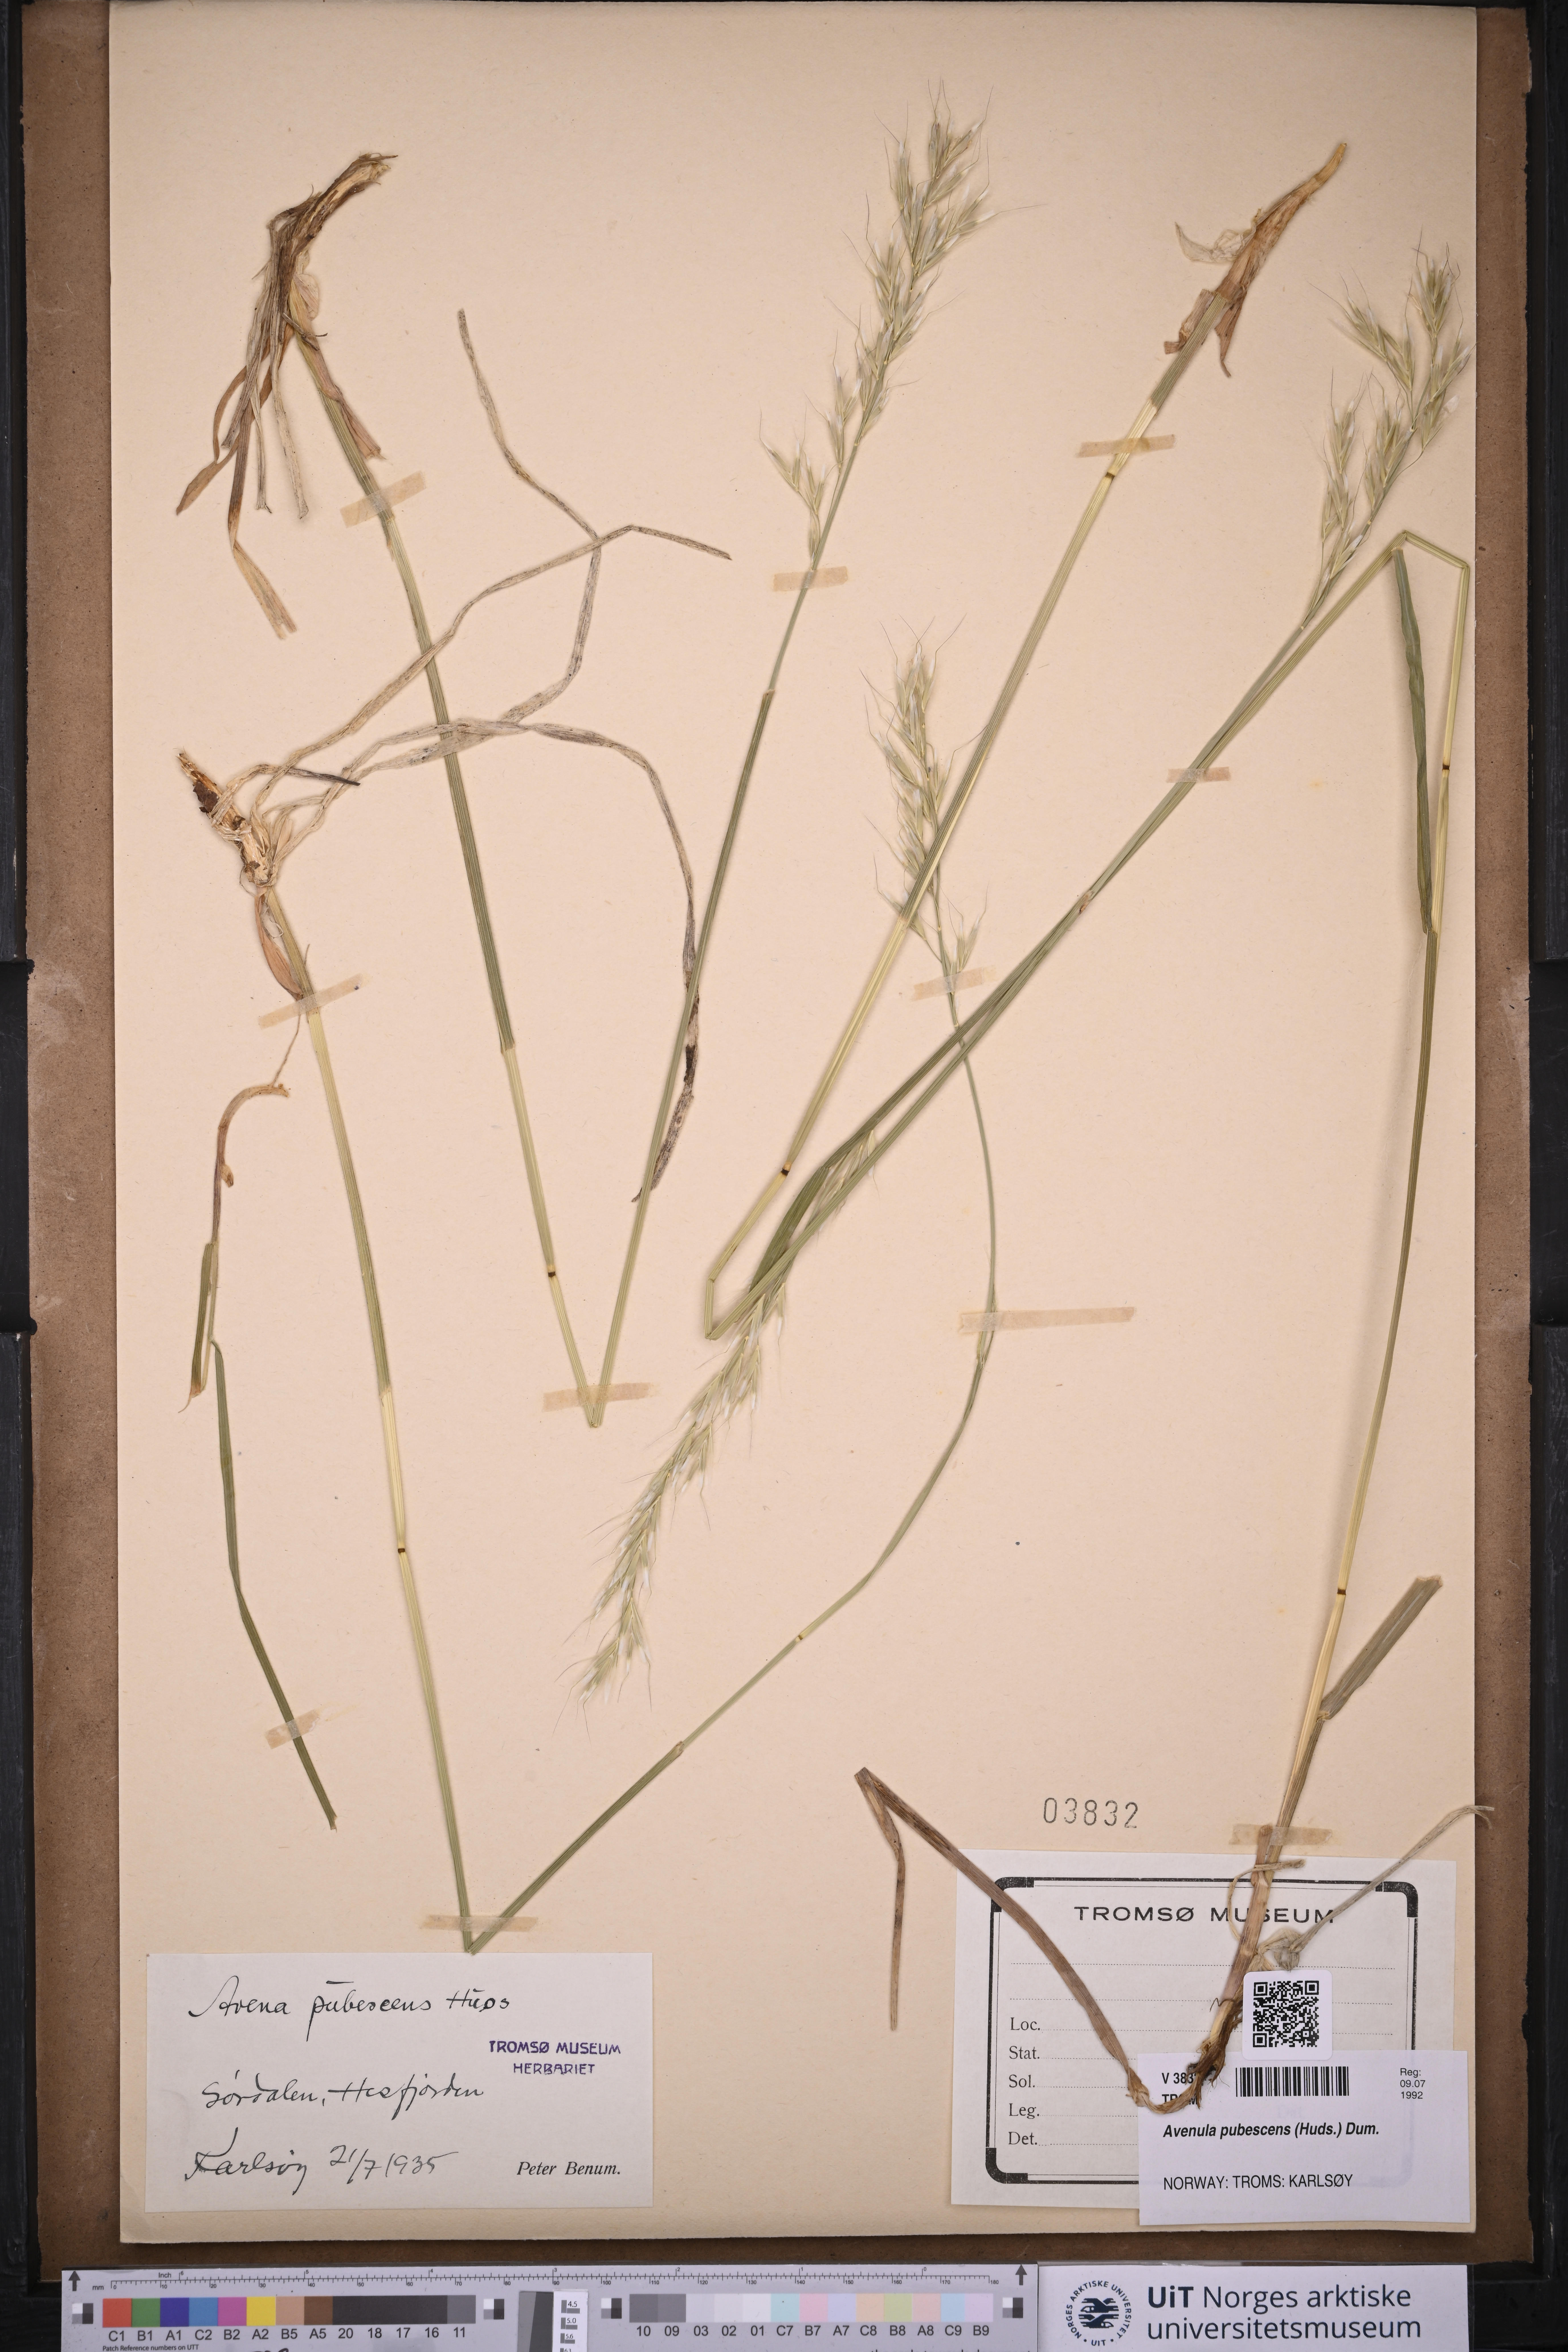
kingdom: Plantae
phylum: Tracheophyta
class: Liliopsida
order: Poales
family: Poaceae
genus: Avenula
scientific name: Avenula pubescens
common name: Downy alpine oatgrass
